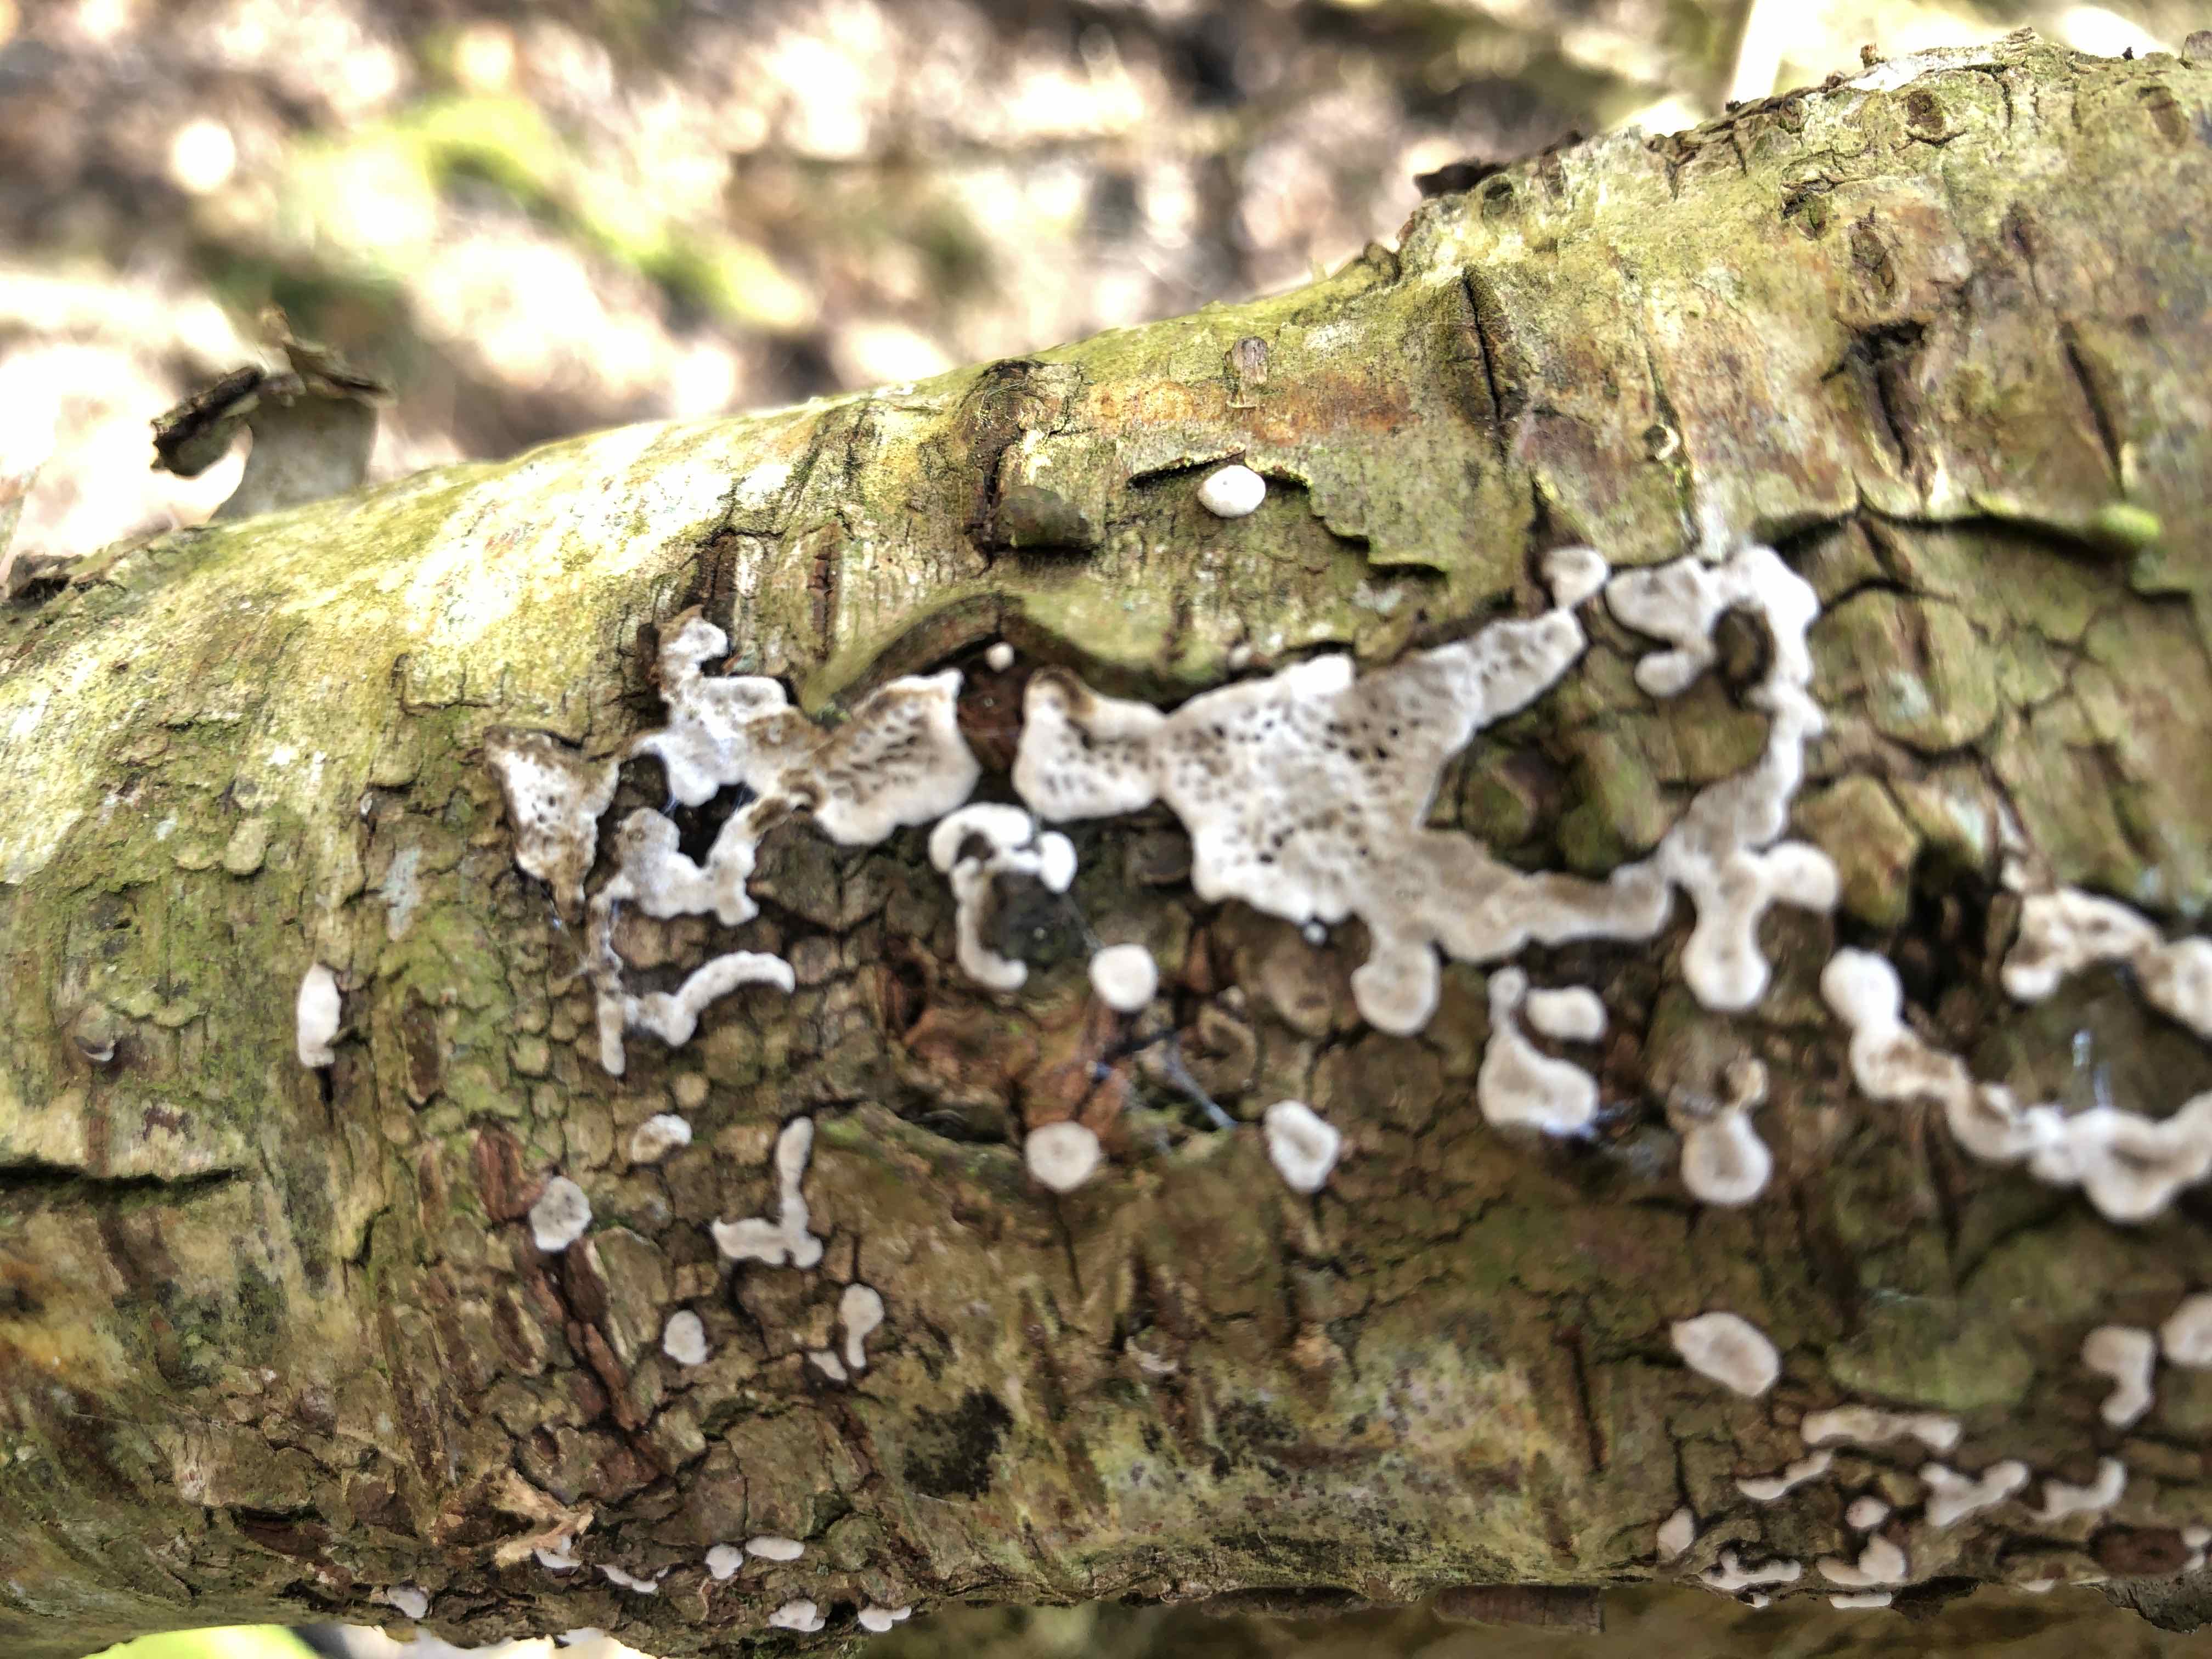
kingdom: Fungi
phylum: Basidiomycota
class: Agaricomycetes
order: Polyporales
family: Polyporaceae
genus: Podofomes
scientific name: Podofomes mollis
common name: blød begporesvamp
